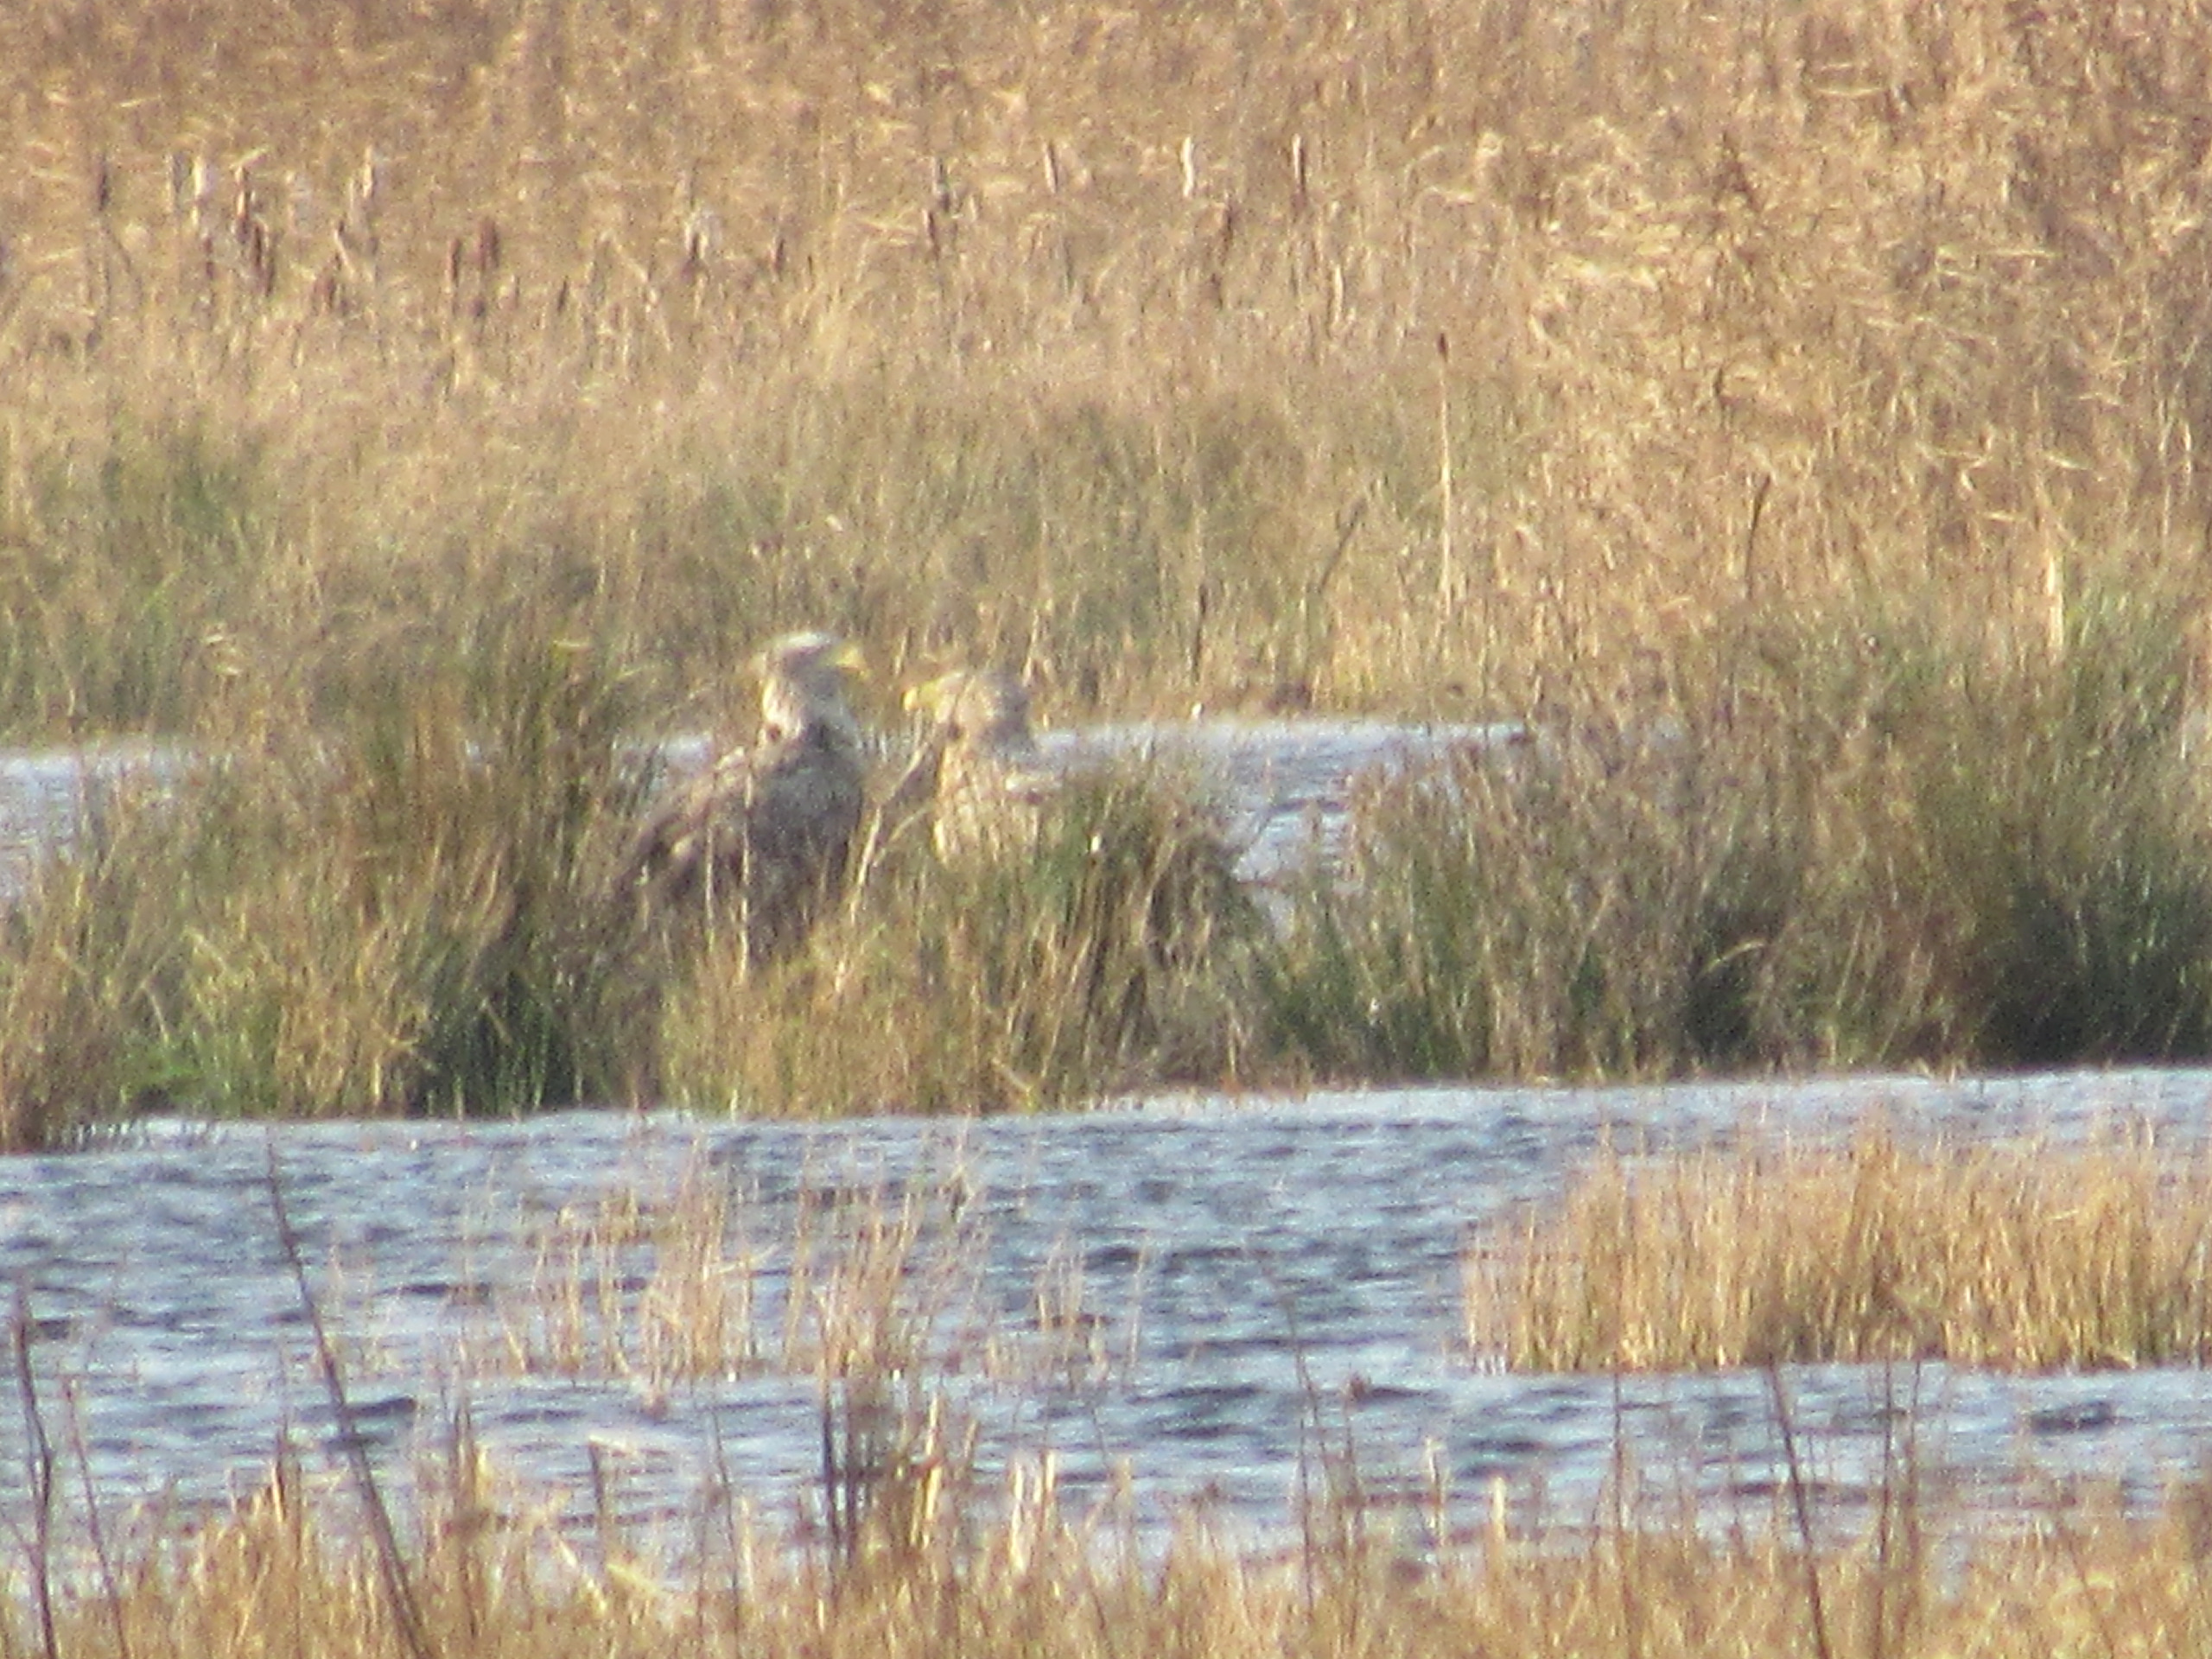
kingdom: Animalia
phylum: Chordata
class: Aves
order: Accipitriformes
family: Accipitridae
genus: Haliaeetus
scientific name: Haliaeetus albicilla
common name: Havørn
